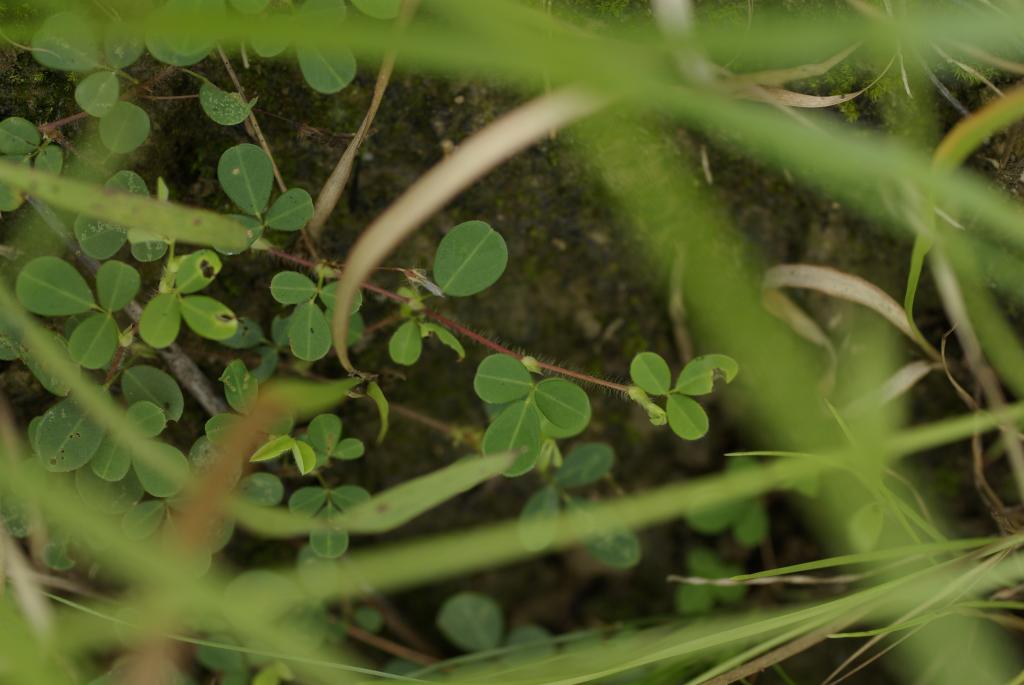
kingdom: Plantae
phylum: Tracheophyta
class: Magnoliopsida
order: Fabales
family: Fabaceae
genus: Grona
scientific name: Grona heterophylla
